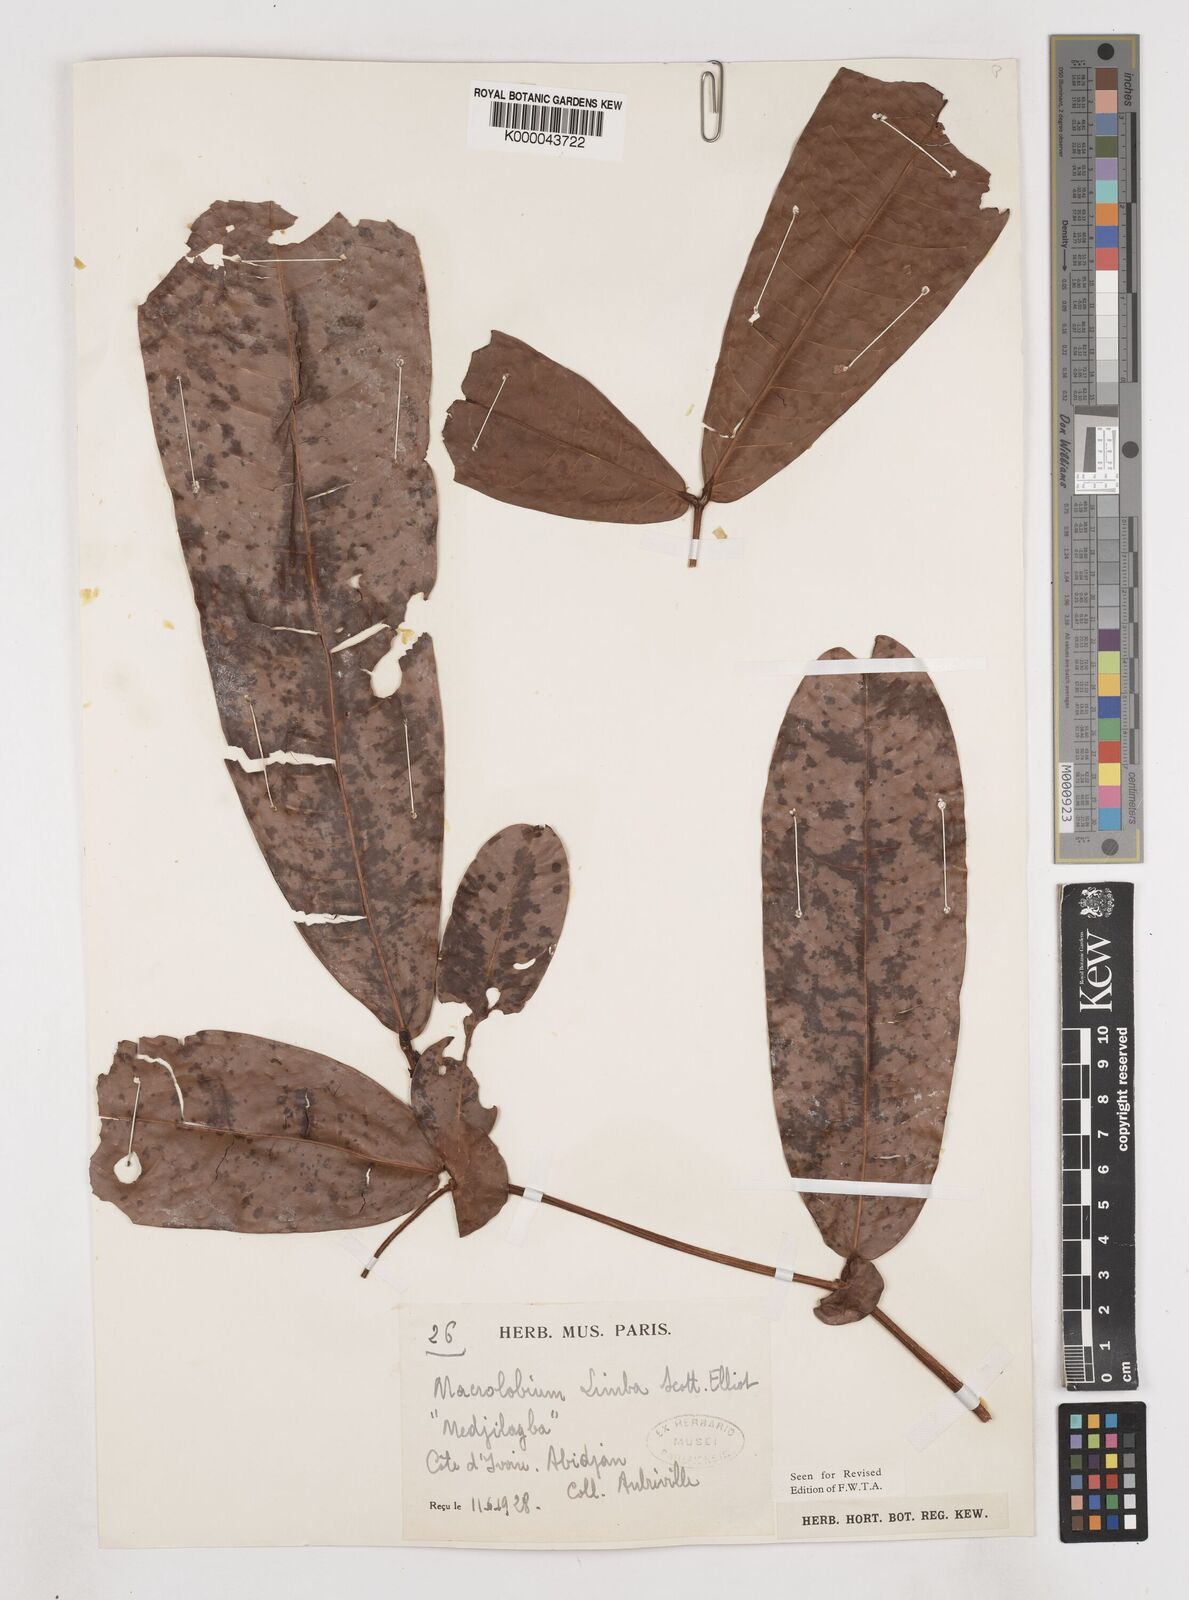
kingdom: Plantae
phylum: Tracheophyta
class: Magnoliopsida
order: Fabales
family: Fabaceae
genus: Gilbertiodendron
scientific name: Gilbertiodendron
